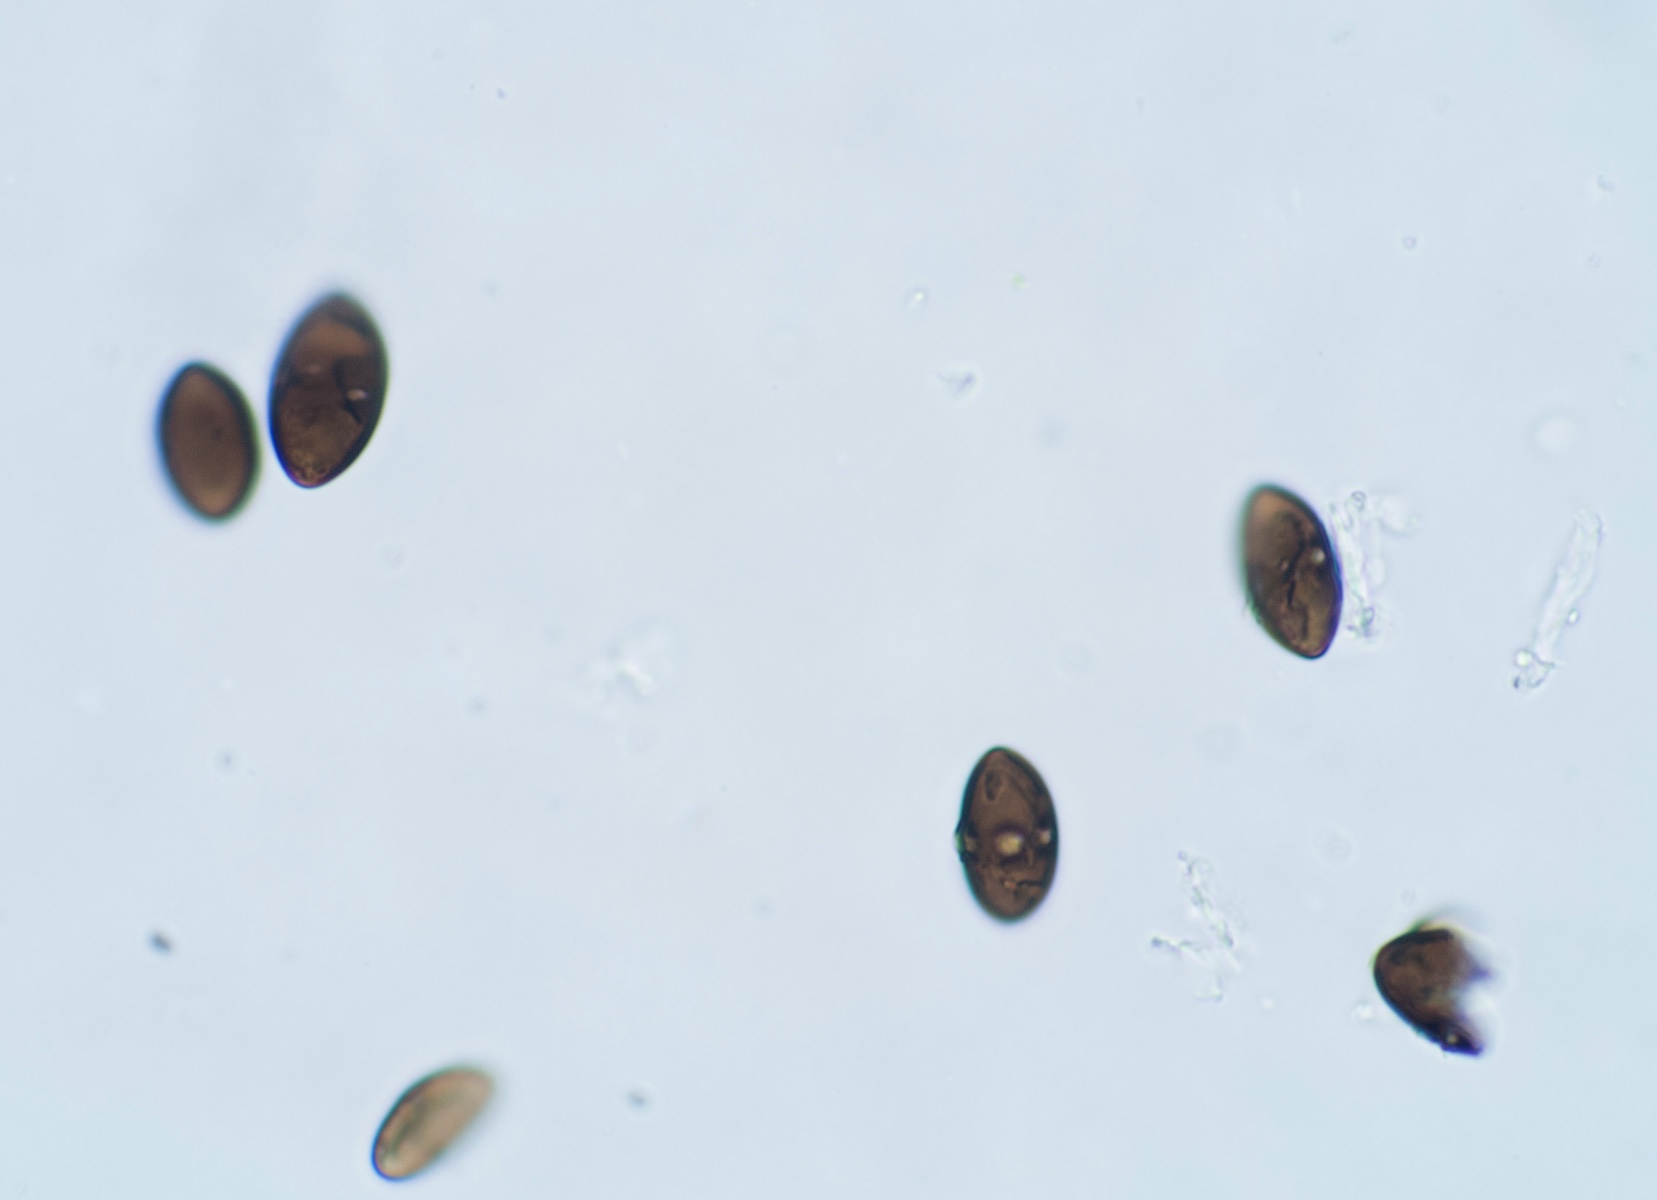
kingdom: Fungi
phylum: Ascomycota
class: Sordariomycetes
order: Amphisphaeriales
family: Amphisphaeriaceae
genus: Amphisphaerella
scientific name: Amphisphaerella xylostei
